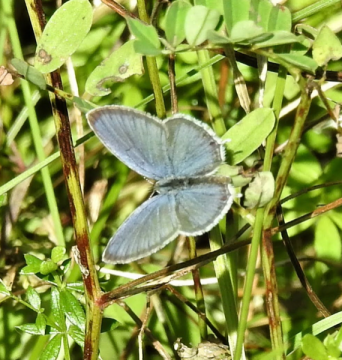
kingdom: Animalia
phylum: Arthropoda
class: Insecta
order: Lepidoptera
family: Lycaenidae
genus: Elkalyce
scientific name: Elkalyce comyntas
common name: Eastern Tailed-Blue
